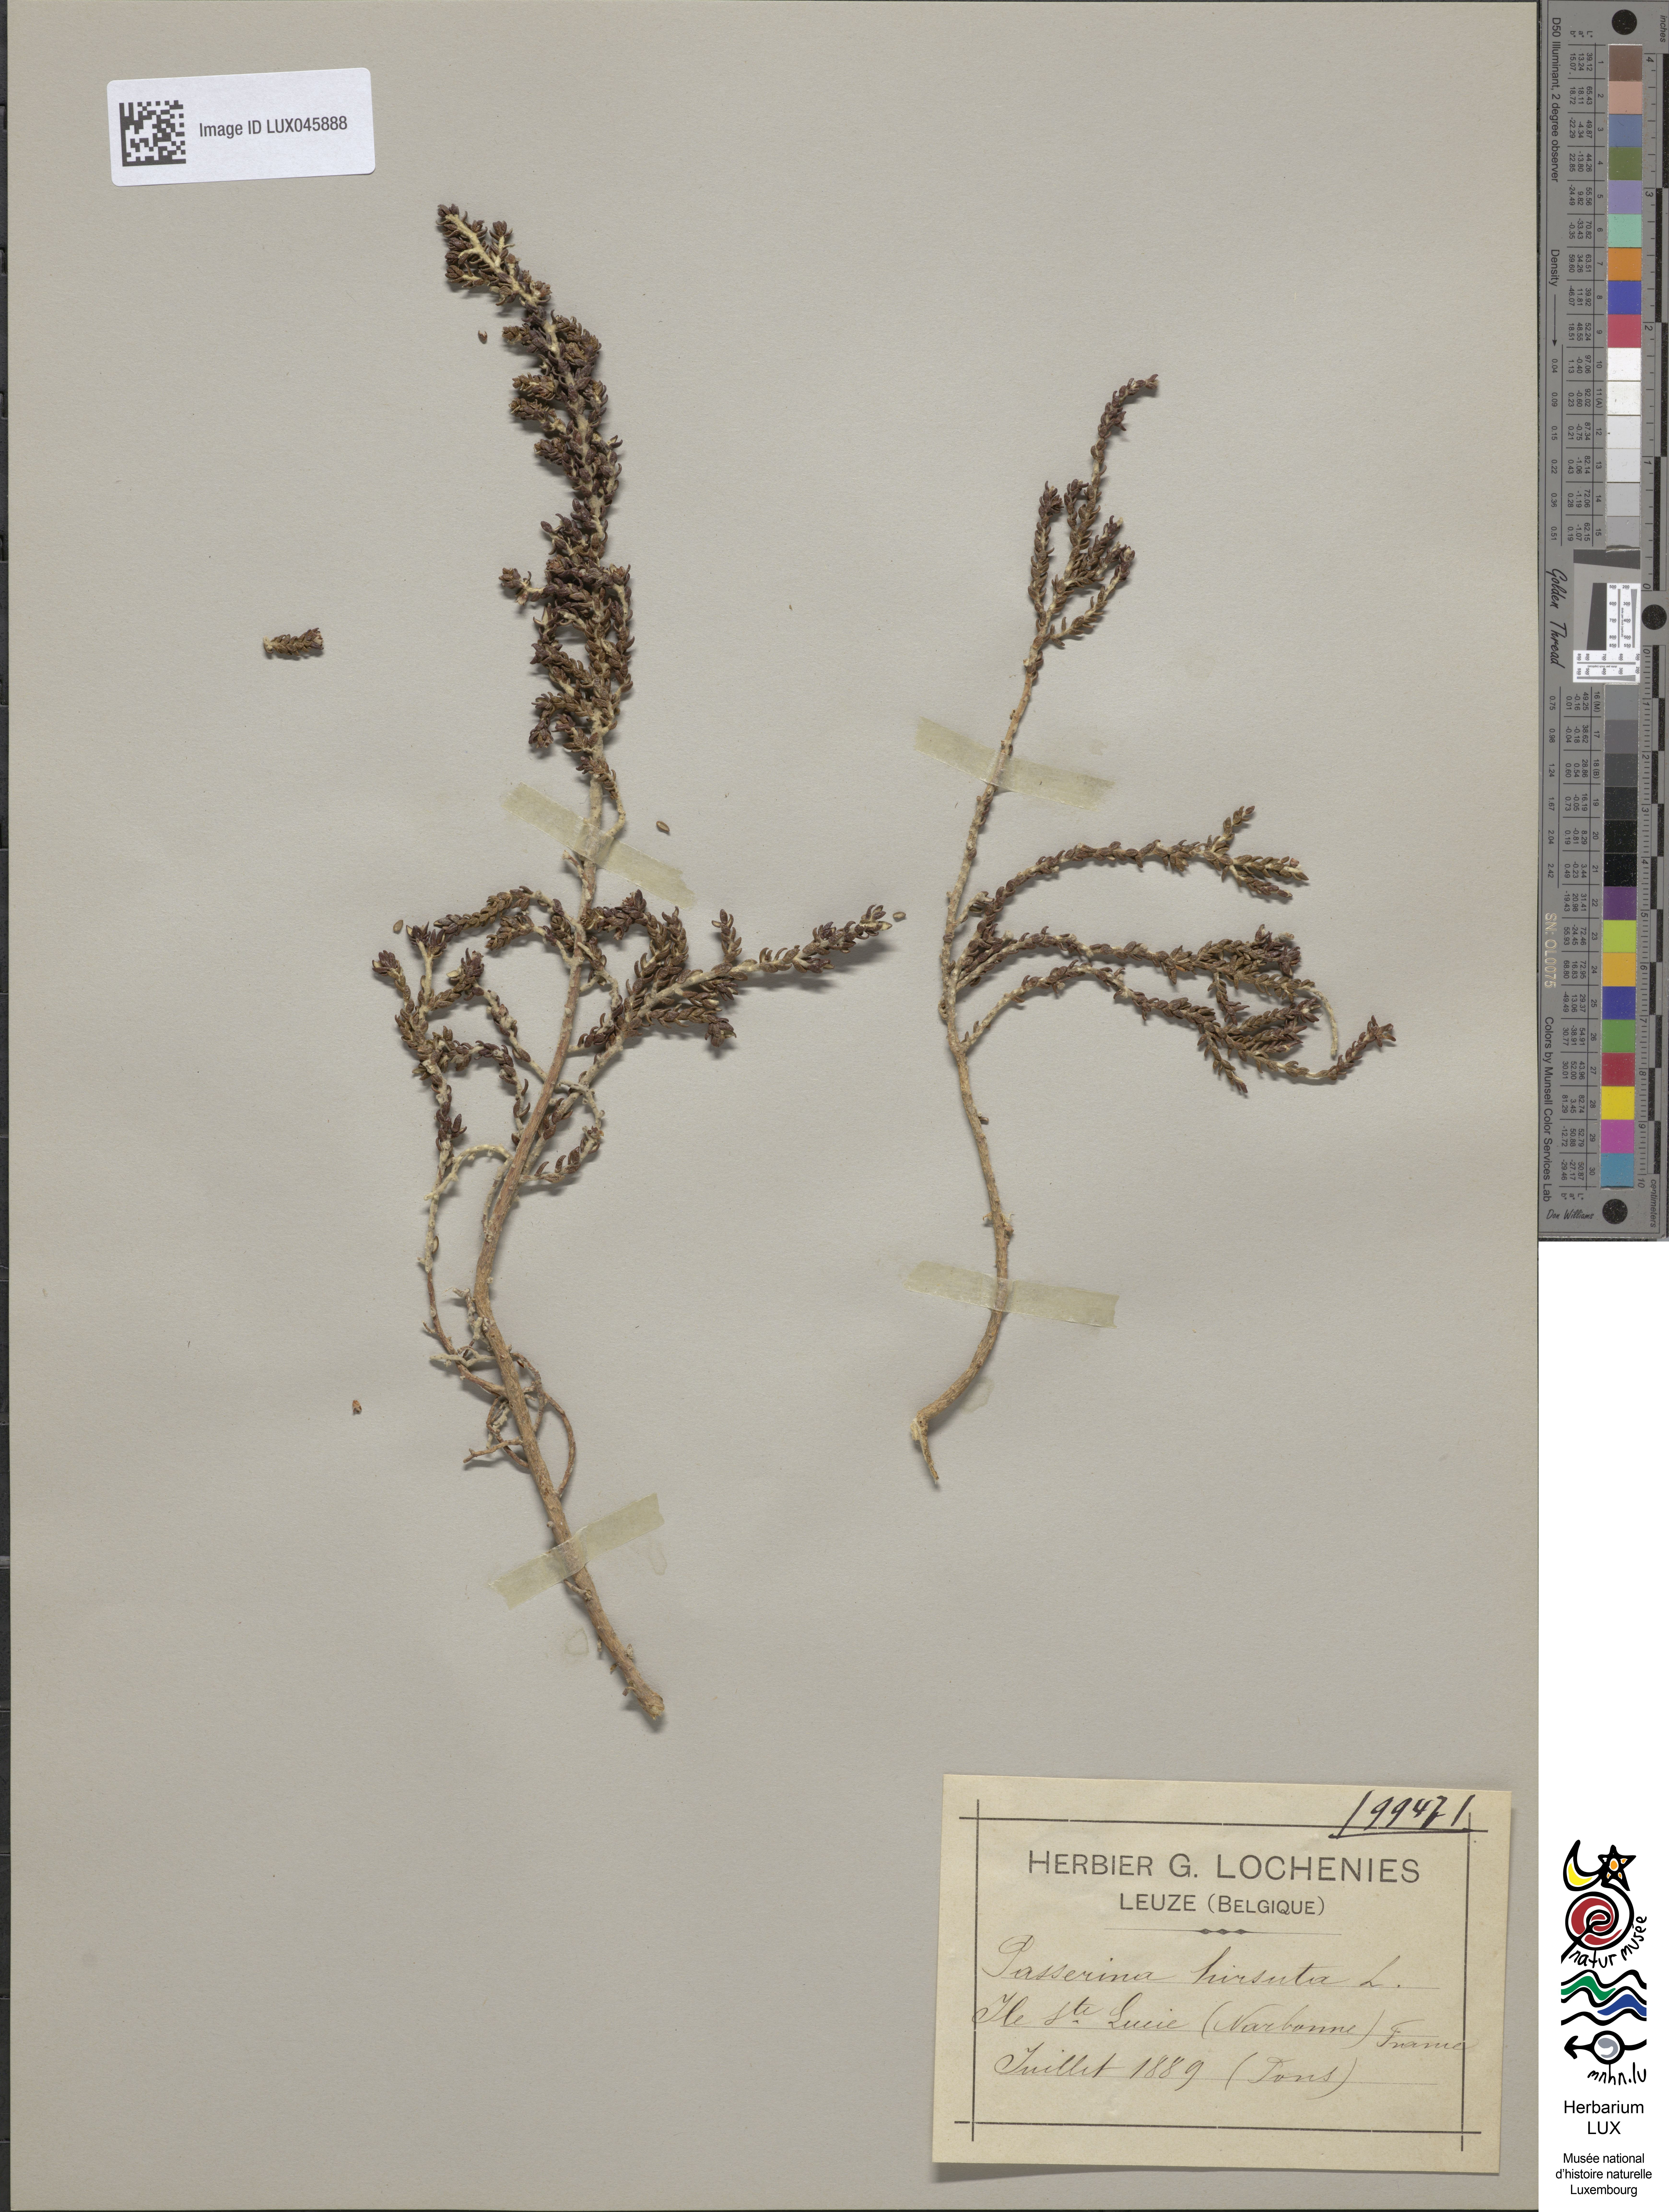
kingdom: Plantae
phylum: Tracheophyta
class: Magnoliopsida
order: Malvales
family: Thymelaeaceae
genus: Thymelaea
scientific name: Thymelaea hirsuta
